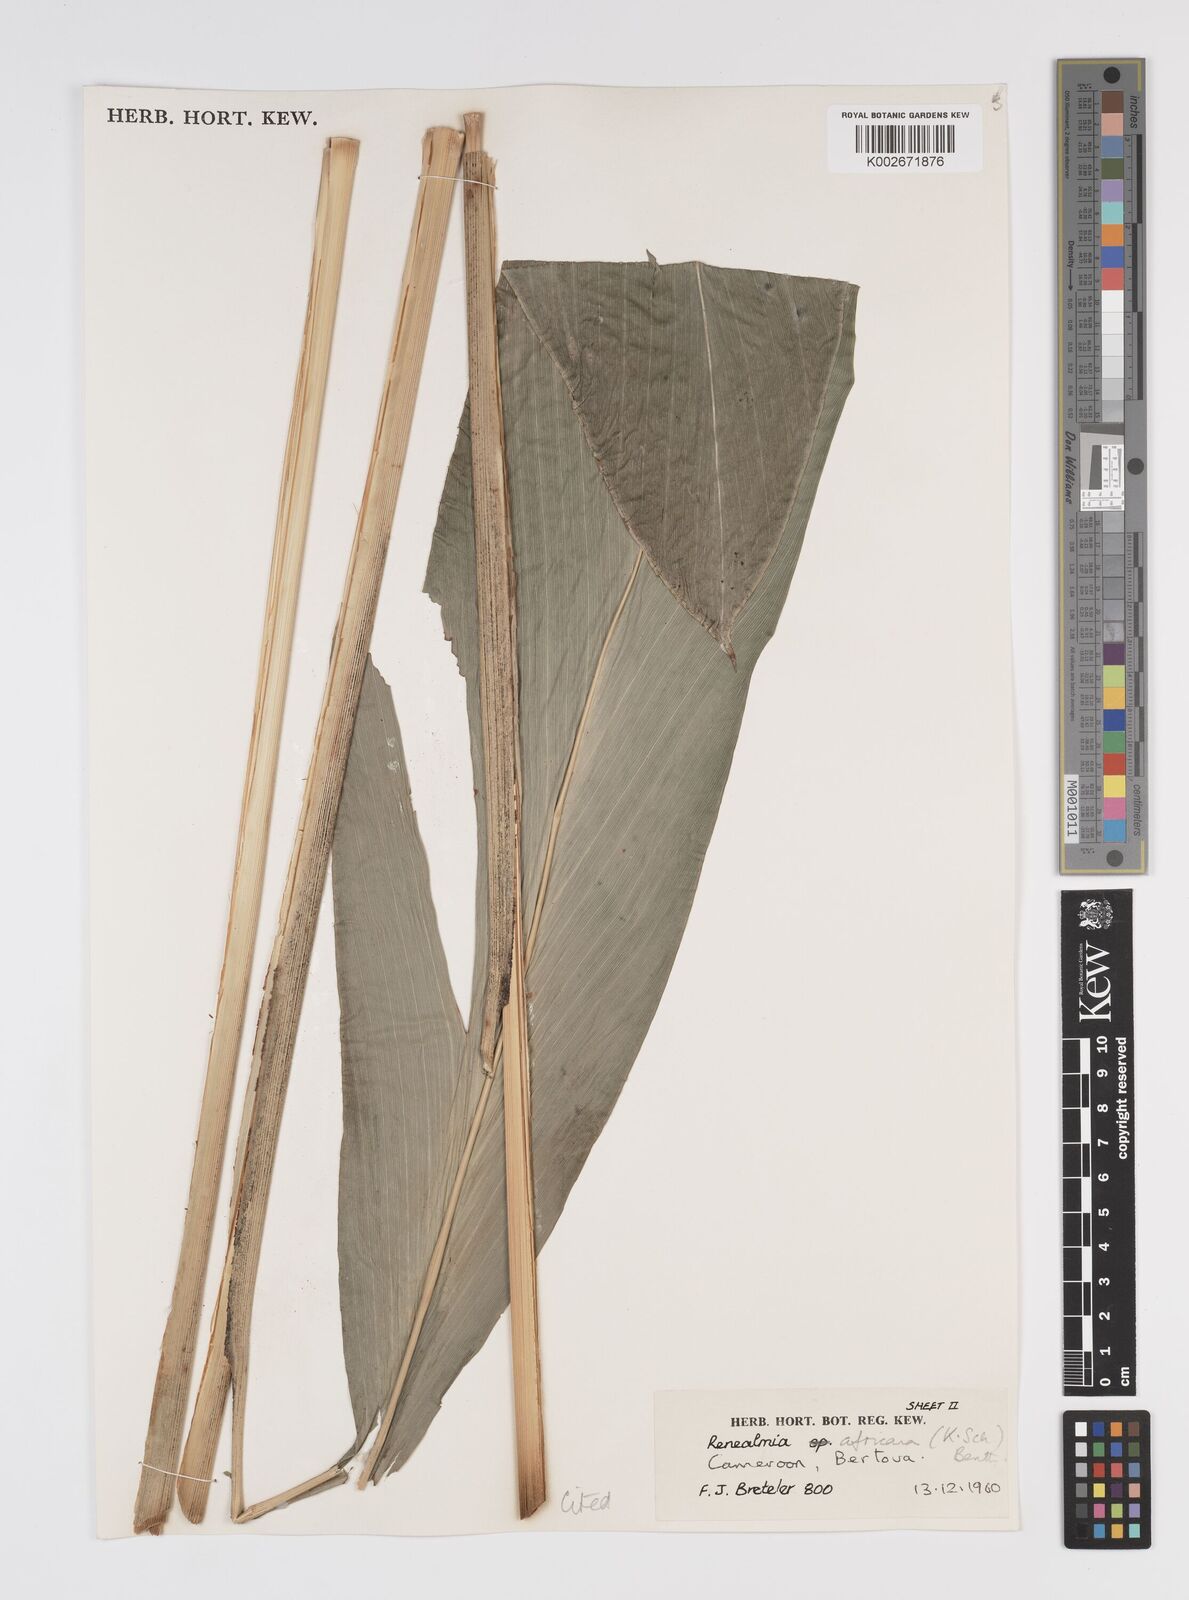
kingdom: Plantae
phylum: Tracheophyta
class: Liliopsida
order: Zingiberales
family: Zingiberaceae
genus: Renealmia
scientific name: Renealmia africana
